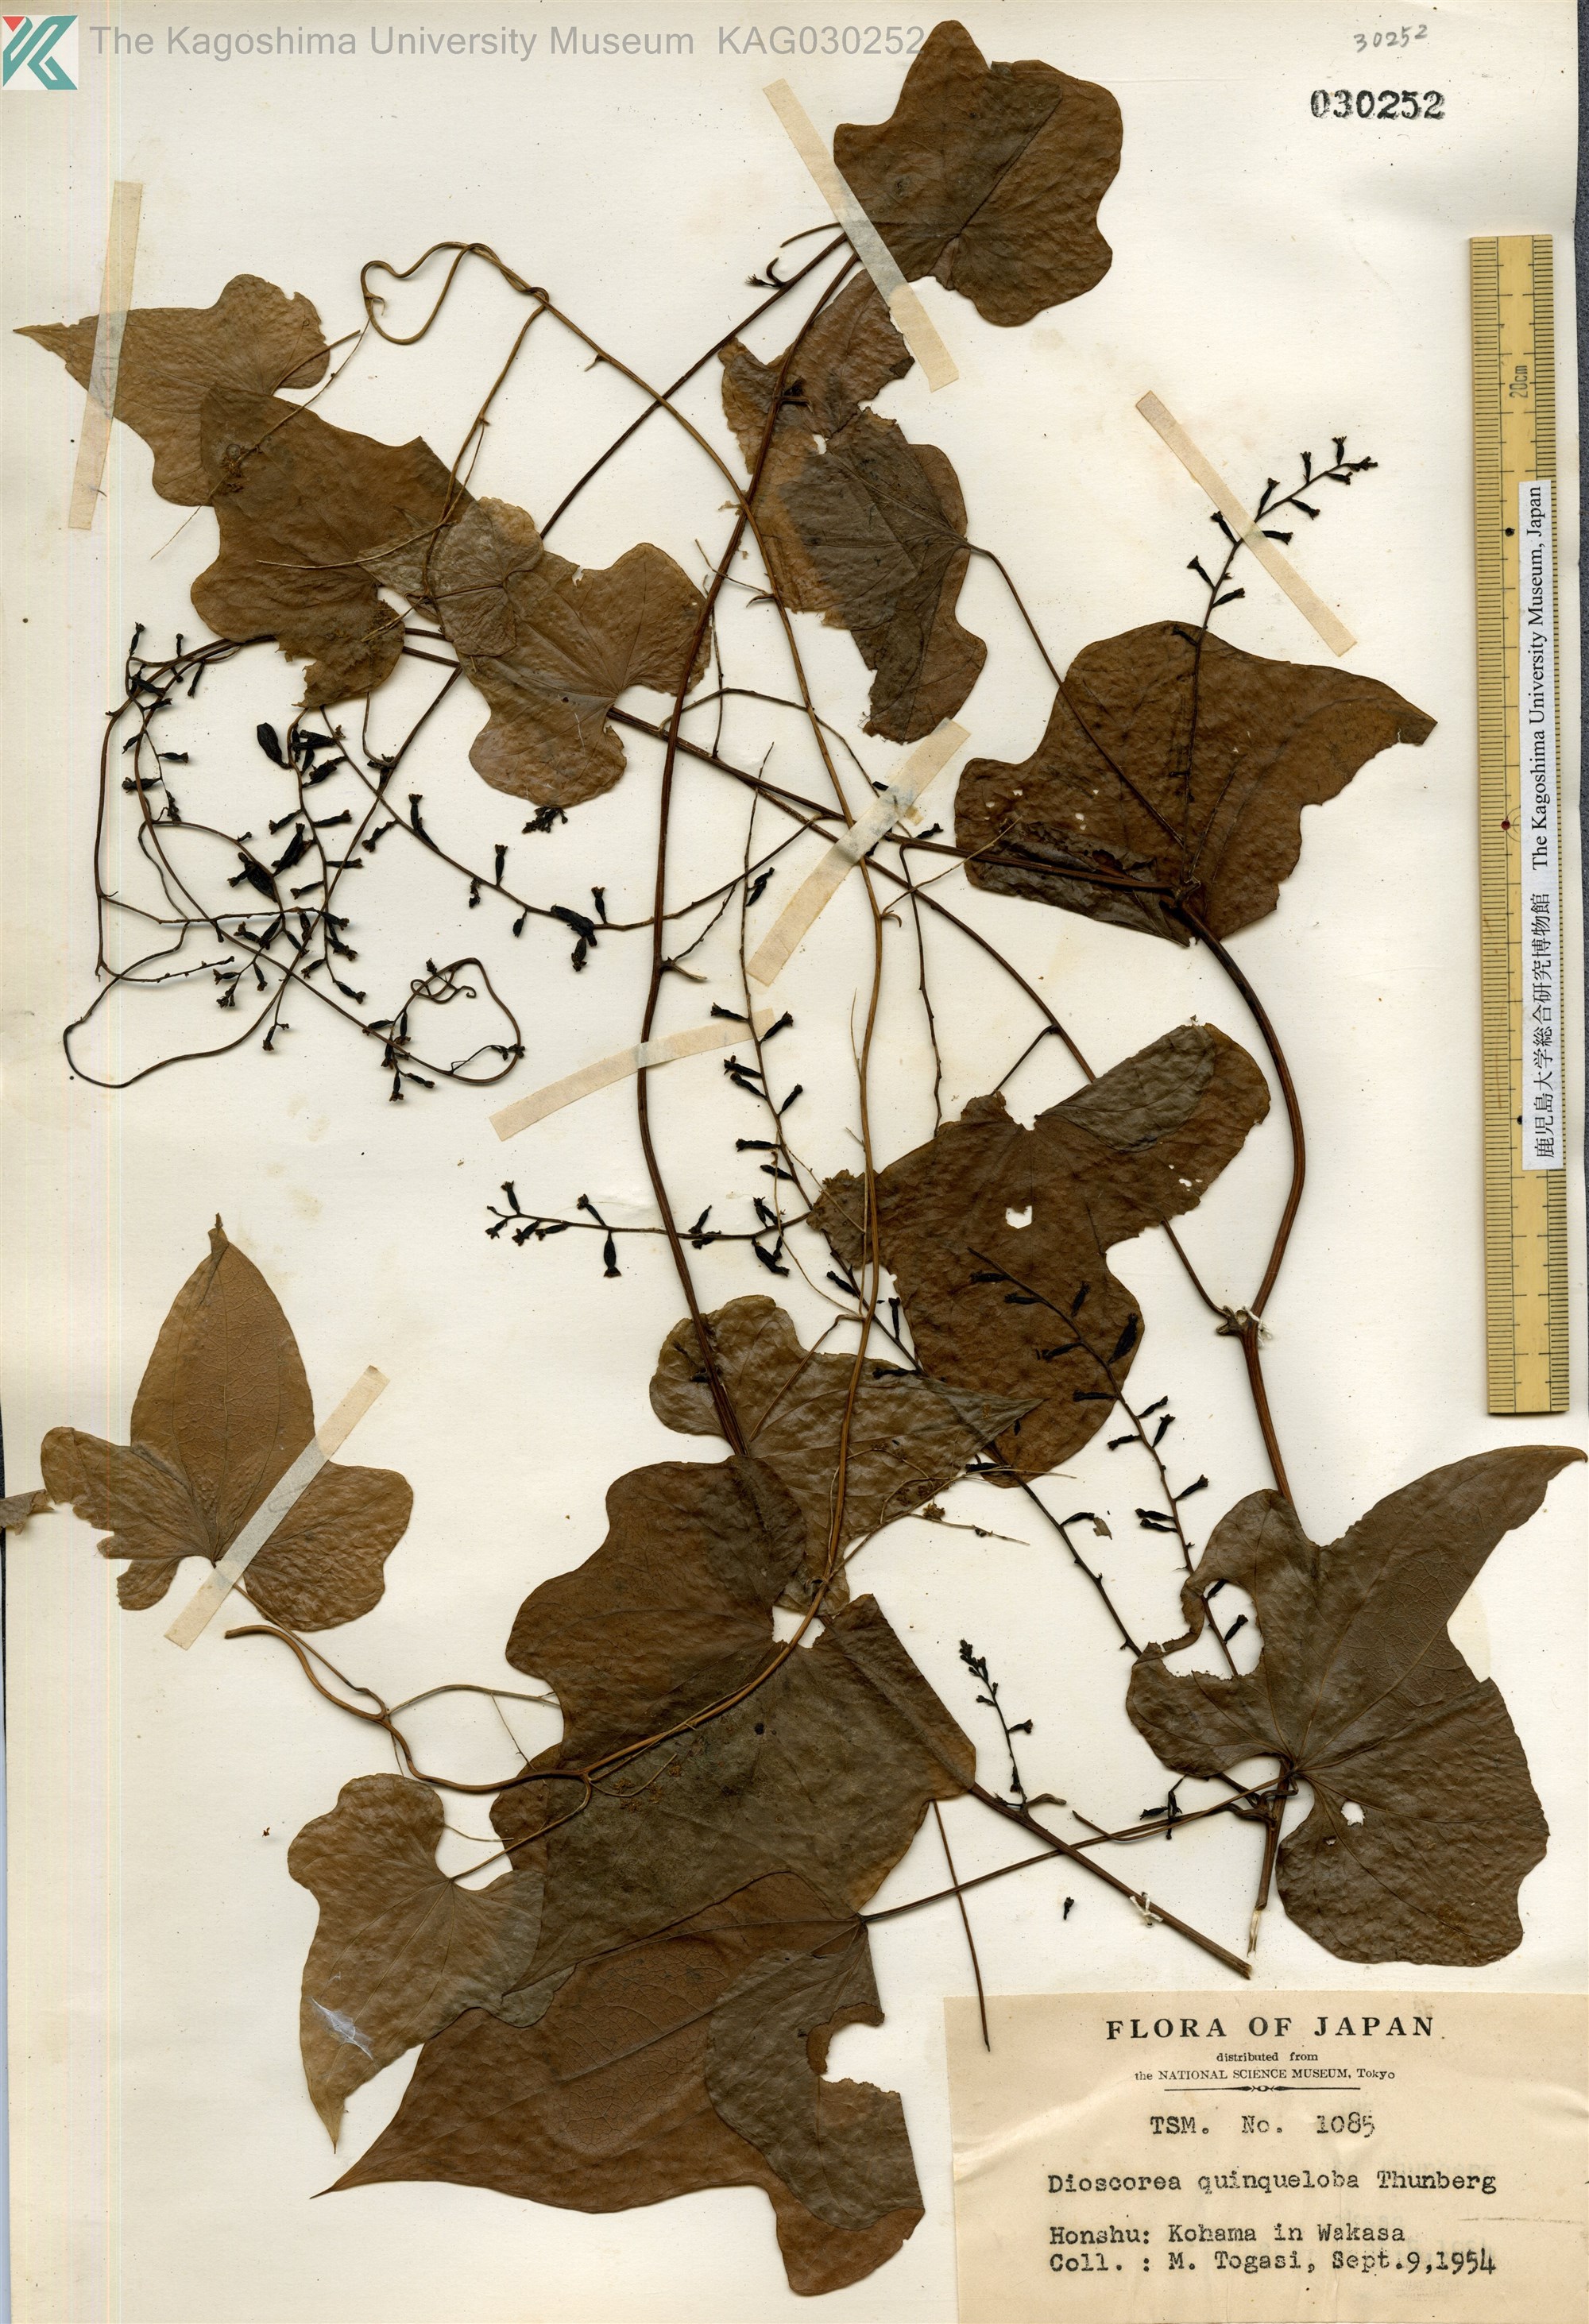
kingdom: Plantae
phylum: Tracheophyta
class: Liliopsida
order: Dioscoreales
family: Dioscoreaceae
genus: Dioscorea
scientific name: Dioscorea quinquelobata
